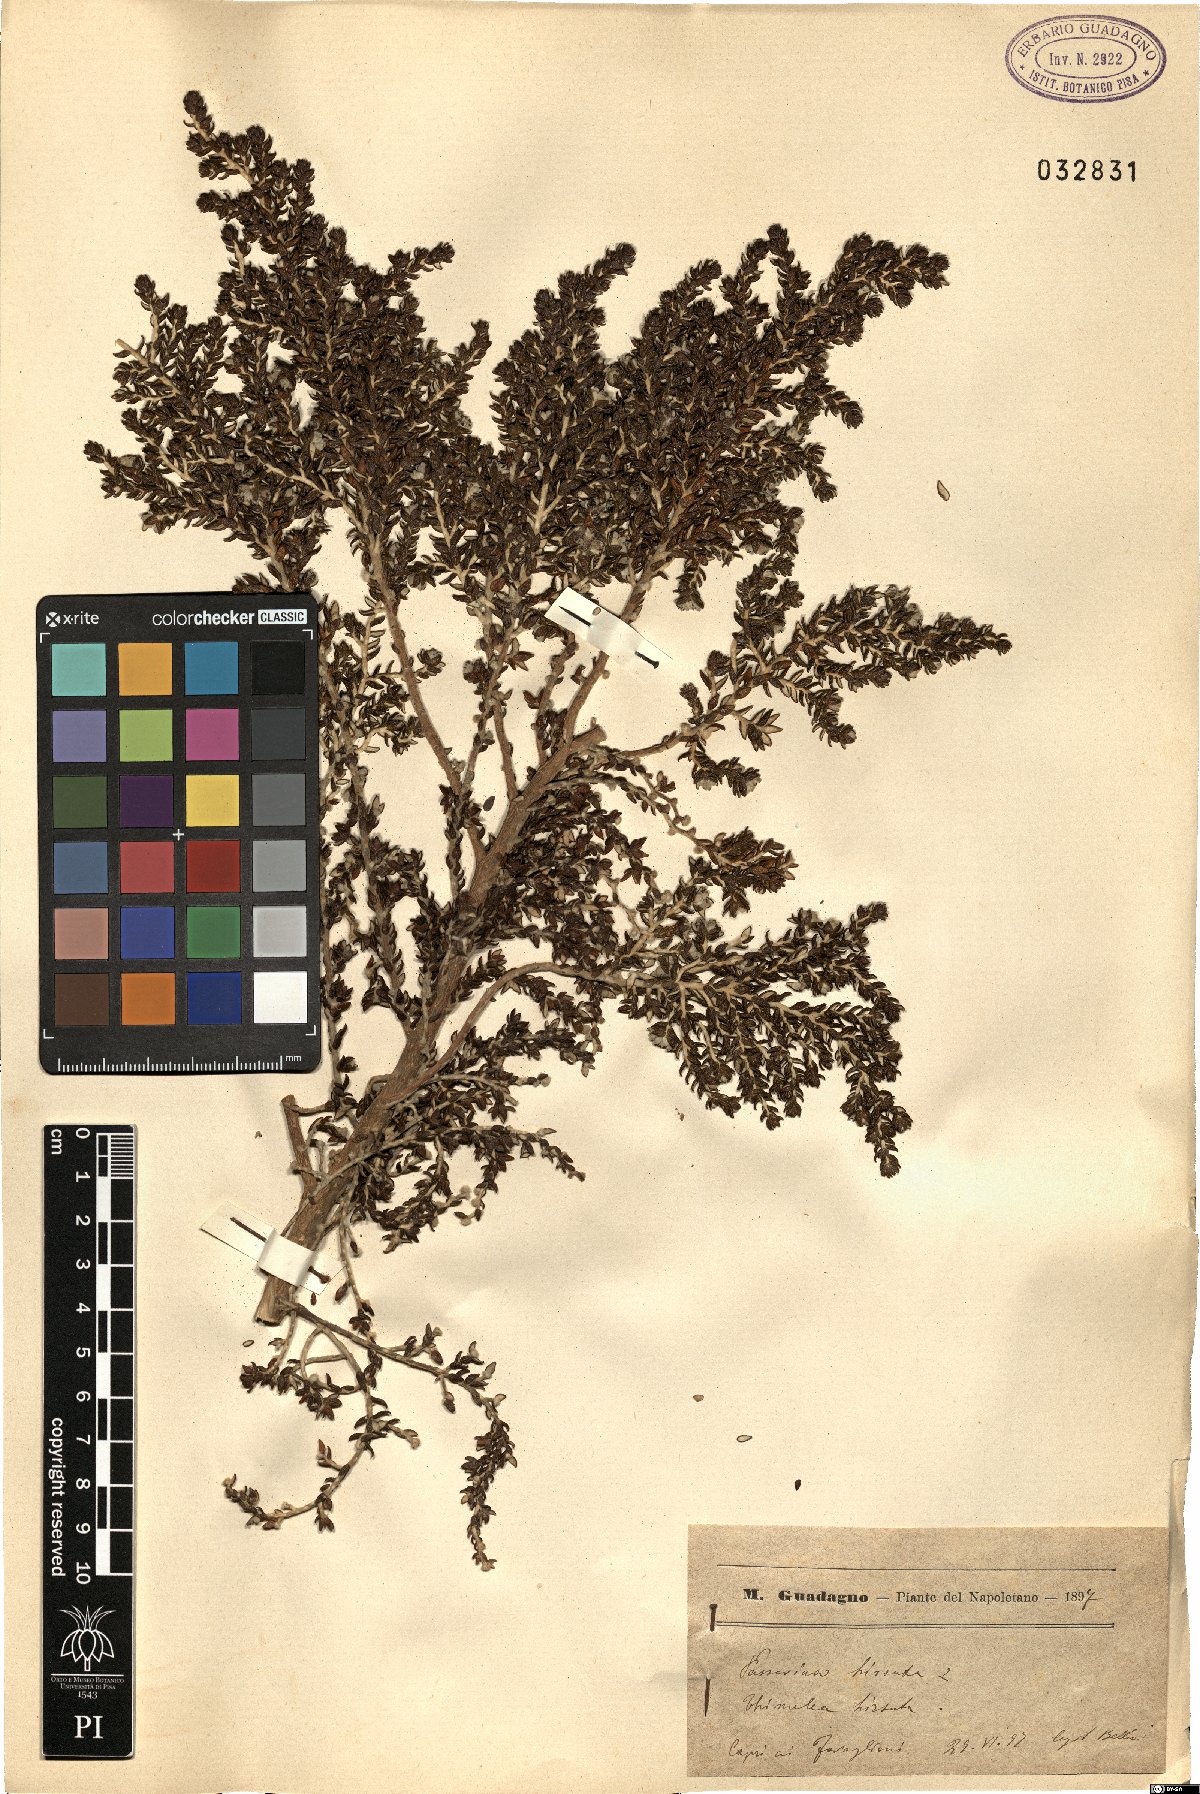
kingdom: Plantae
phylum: Tracheophyta
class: Magnoliopsida
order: Malvales
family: Thymelaeaceae
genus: Thymelaea
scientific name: Thymelaea hirsuta
